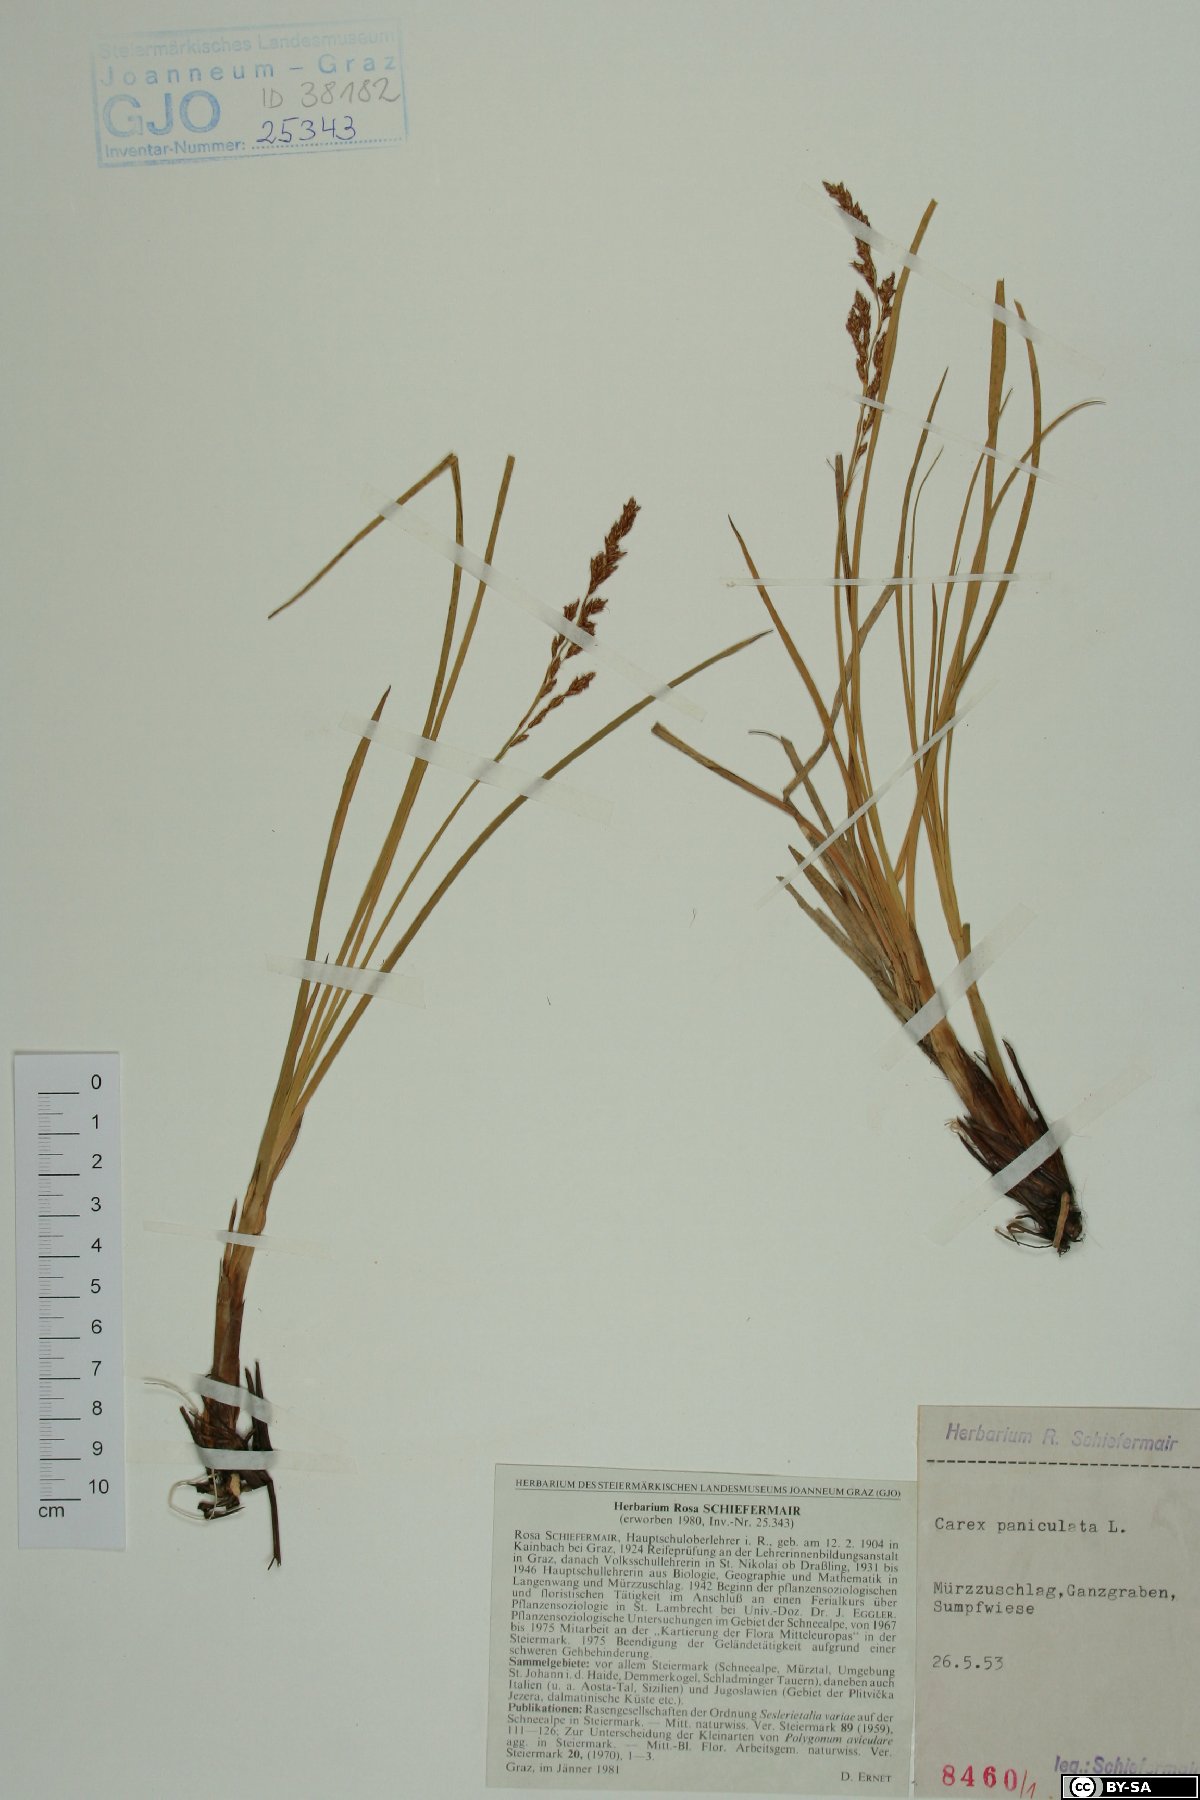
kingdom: Plantae
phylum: Tracheophyta
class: Liliopsida
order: Poales
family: Cyperaceae
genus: Carex
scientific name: Carex paniculata
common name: Greater tussock-sedge
